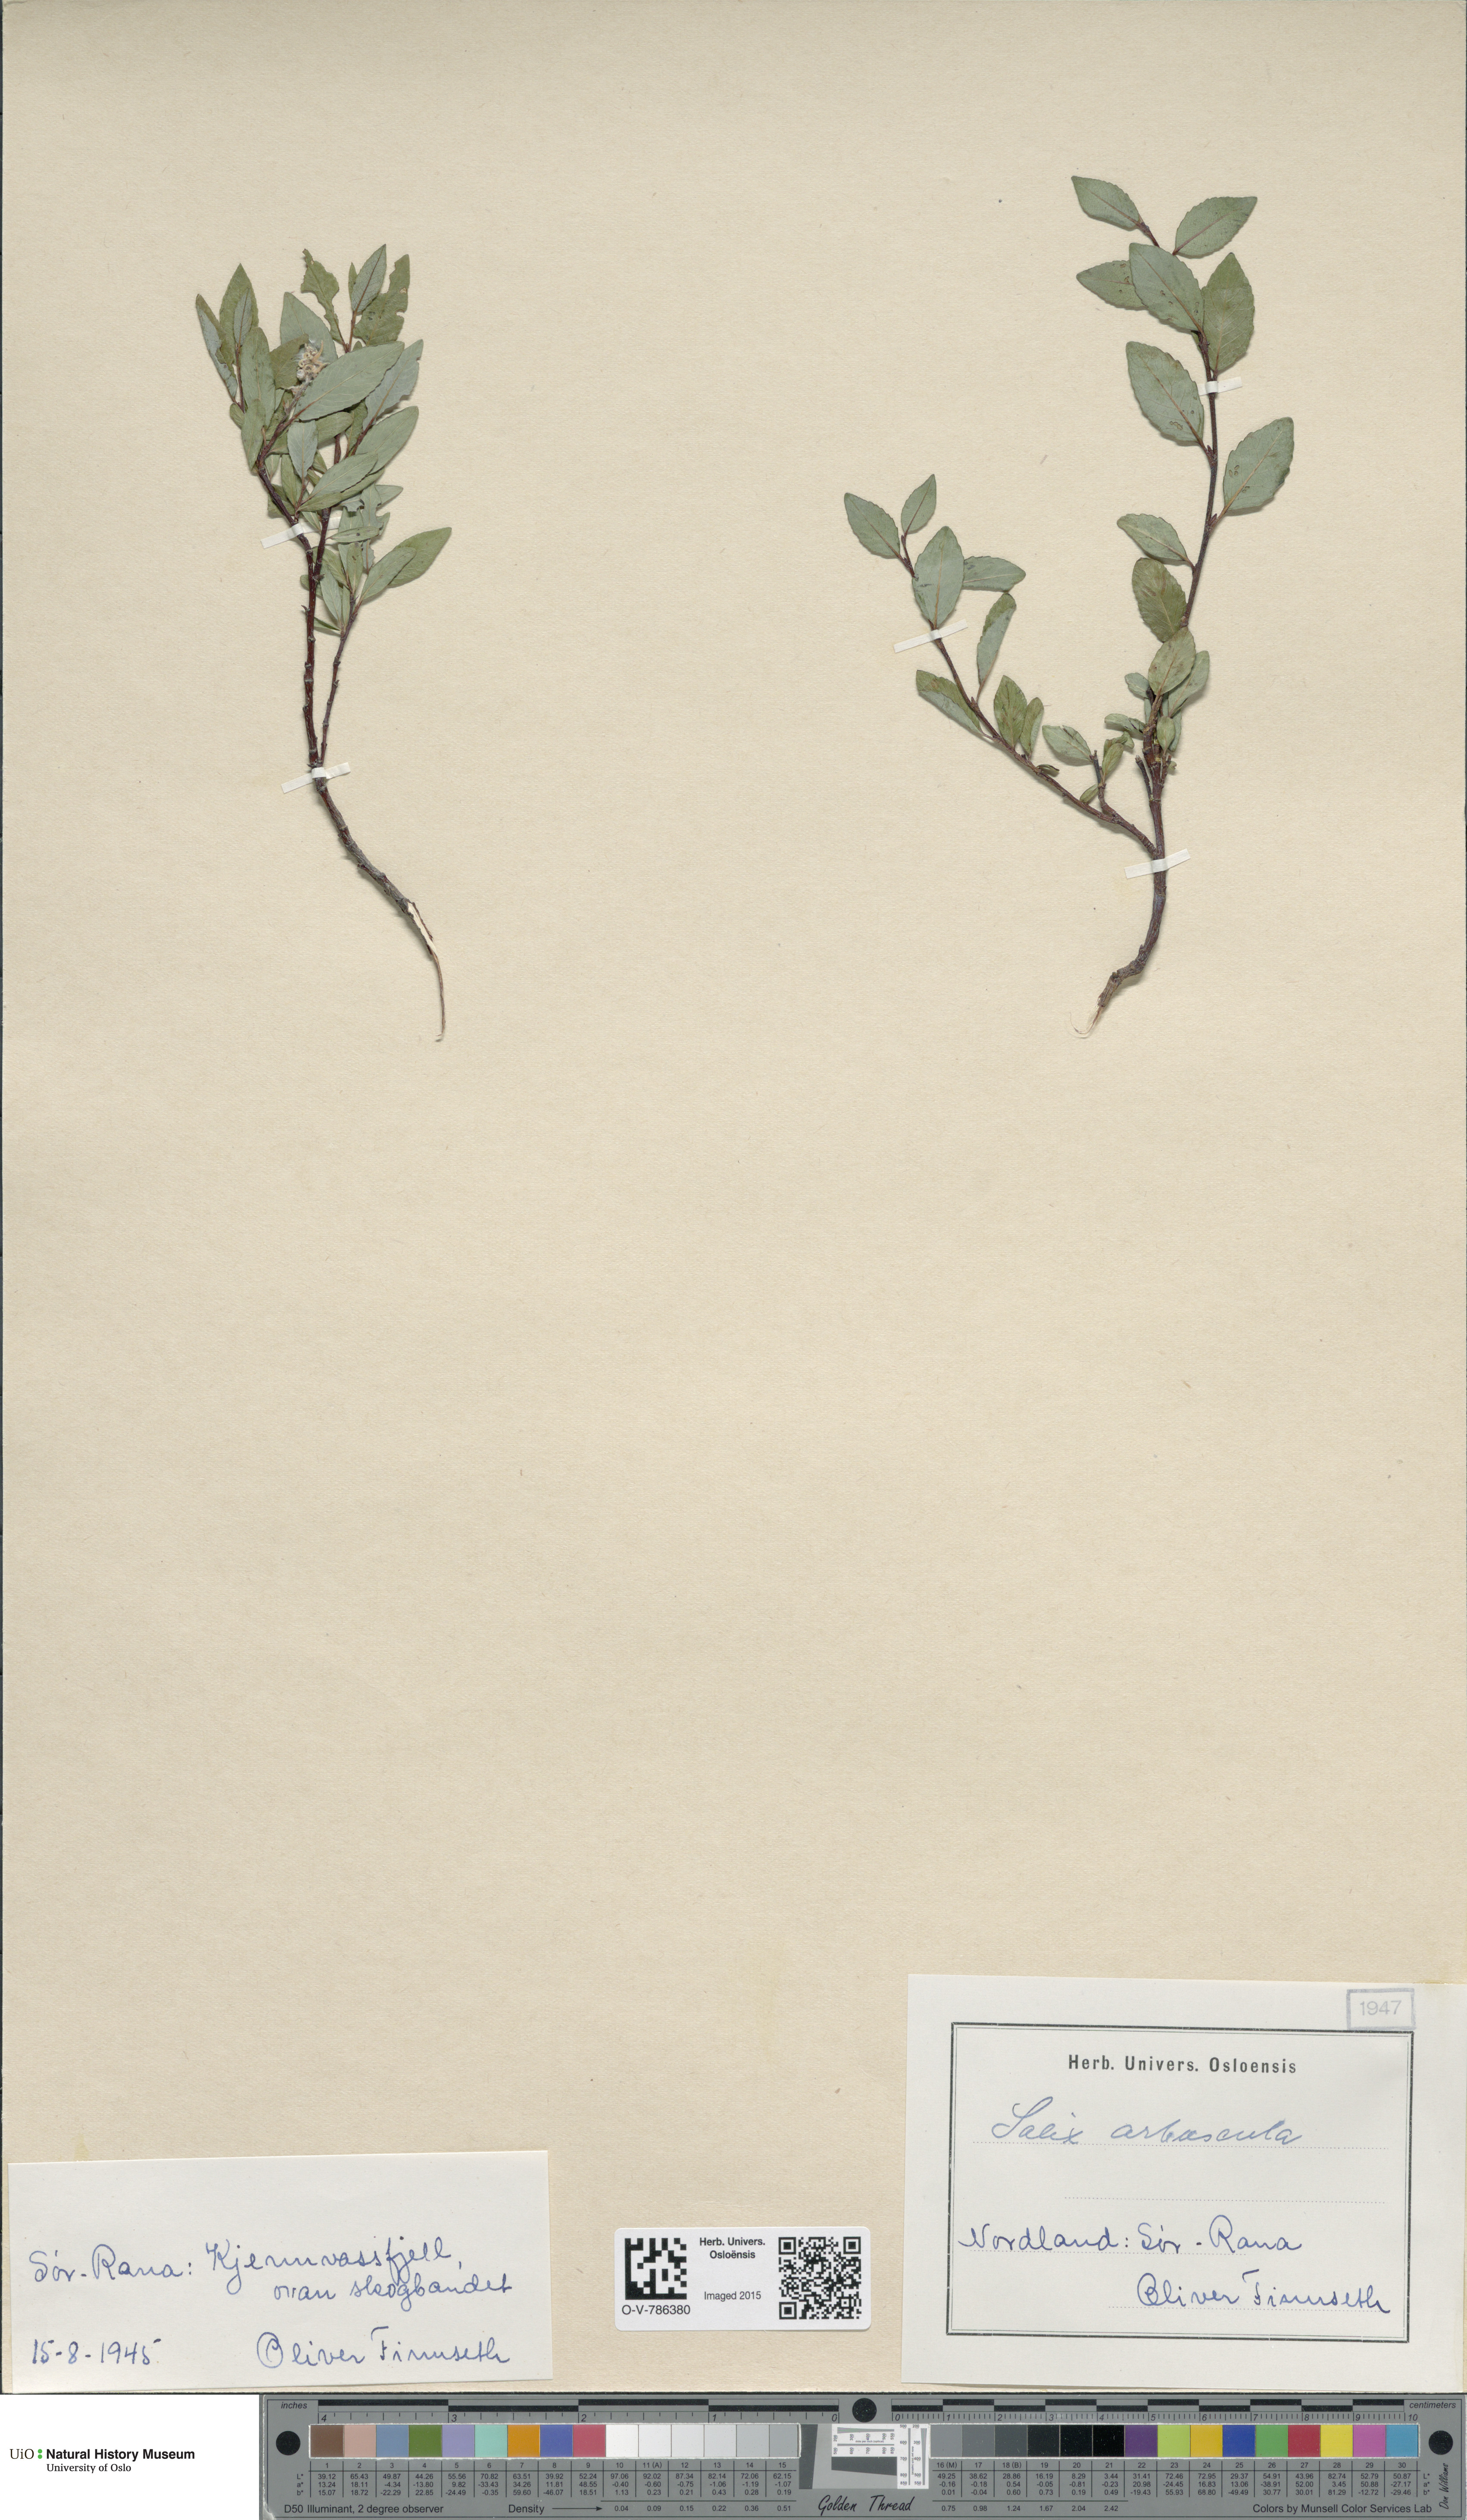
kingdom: Plantae
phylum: Tracheophyta
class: Magnoliopsida
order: Malpighiales
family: Salicaceae
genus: Salix
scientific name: Salix arbuscula
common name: Mountain willow
